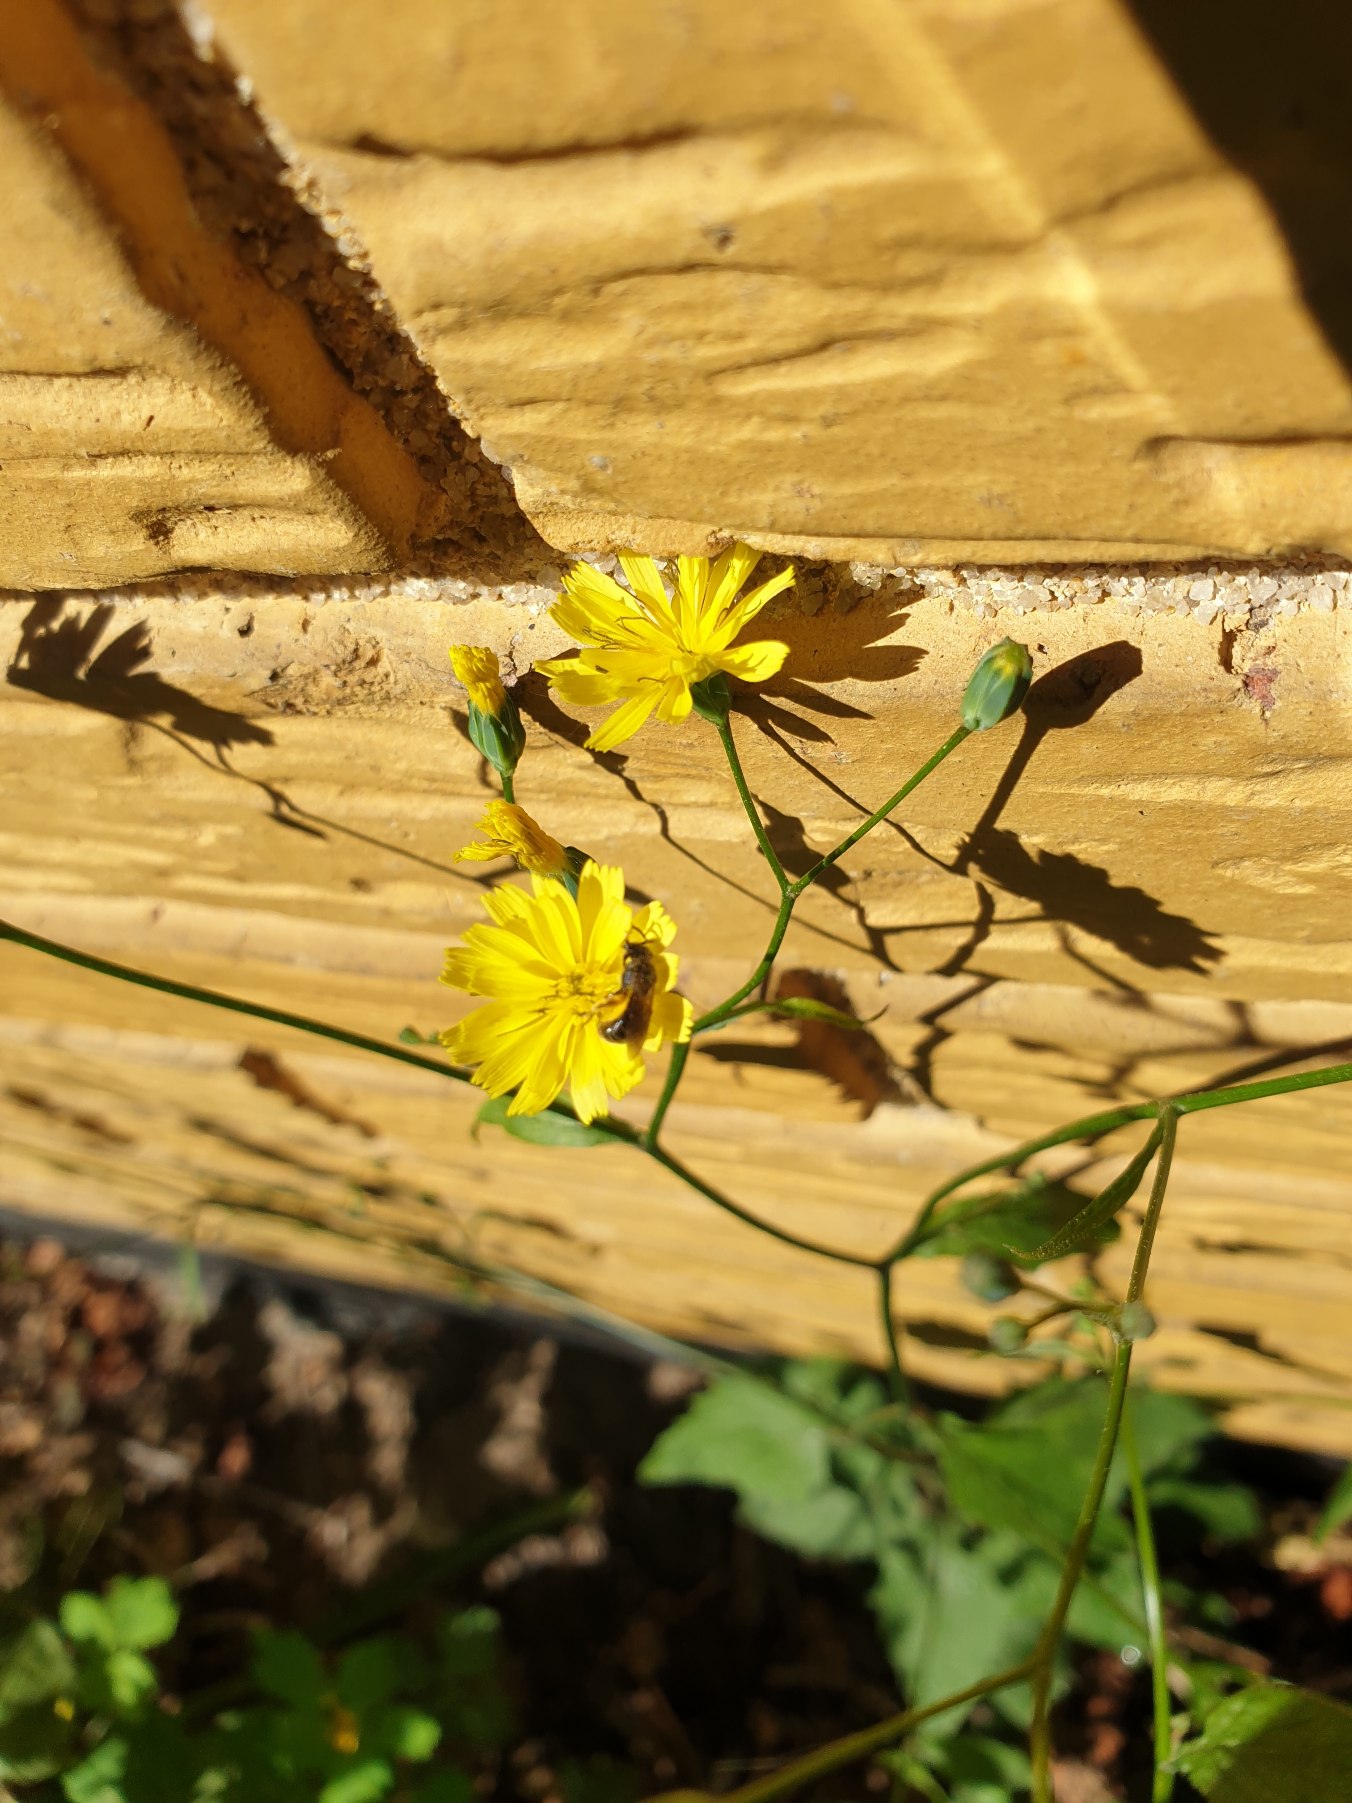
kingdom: Plantae
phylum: Tracheophyta
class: Magnoliopsida
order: Asterales
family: Asteraceae
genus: Lapsana
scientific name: Lapsana communis
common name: Haremad
